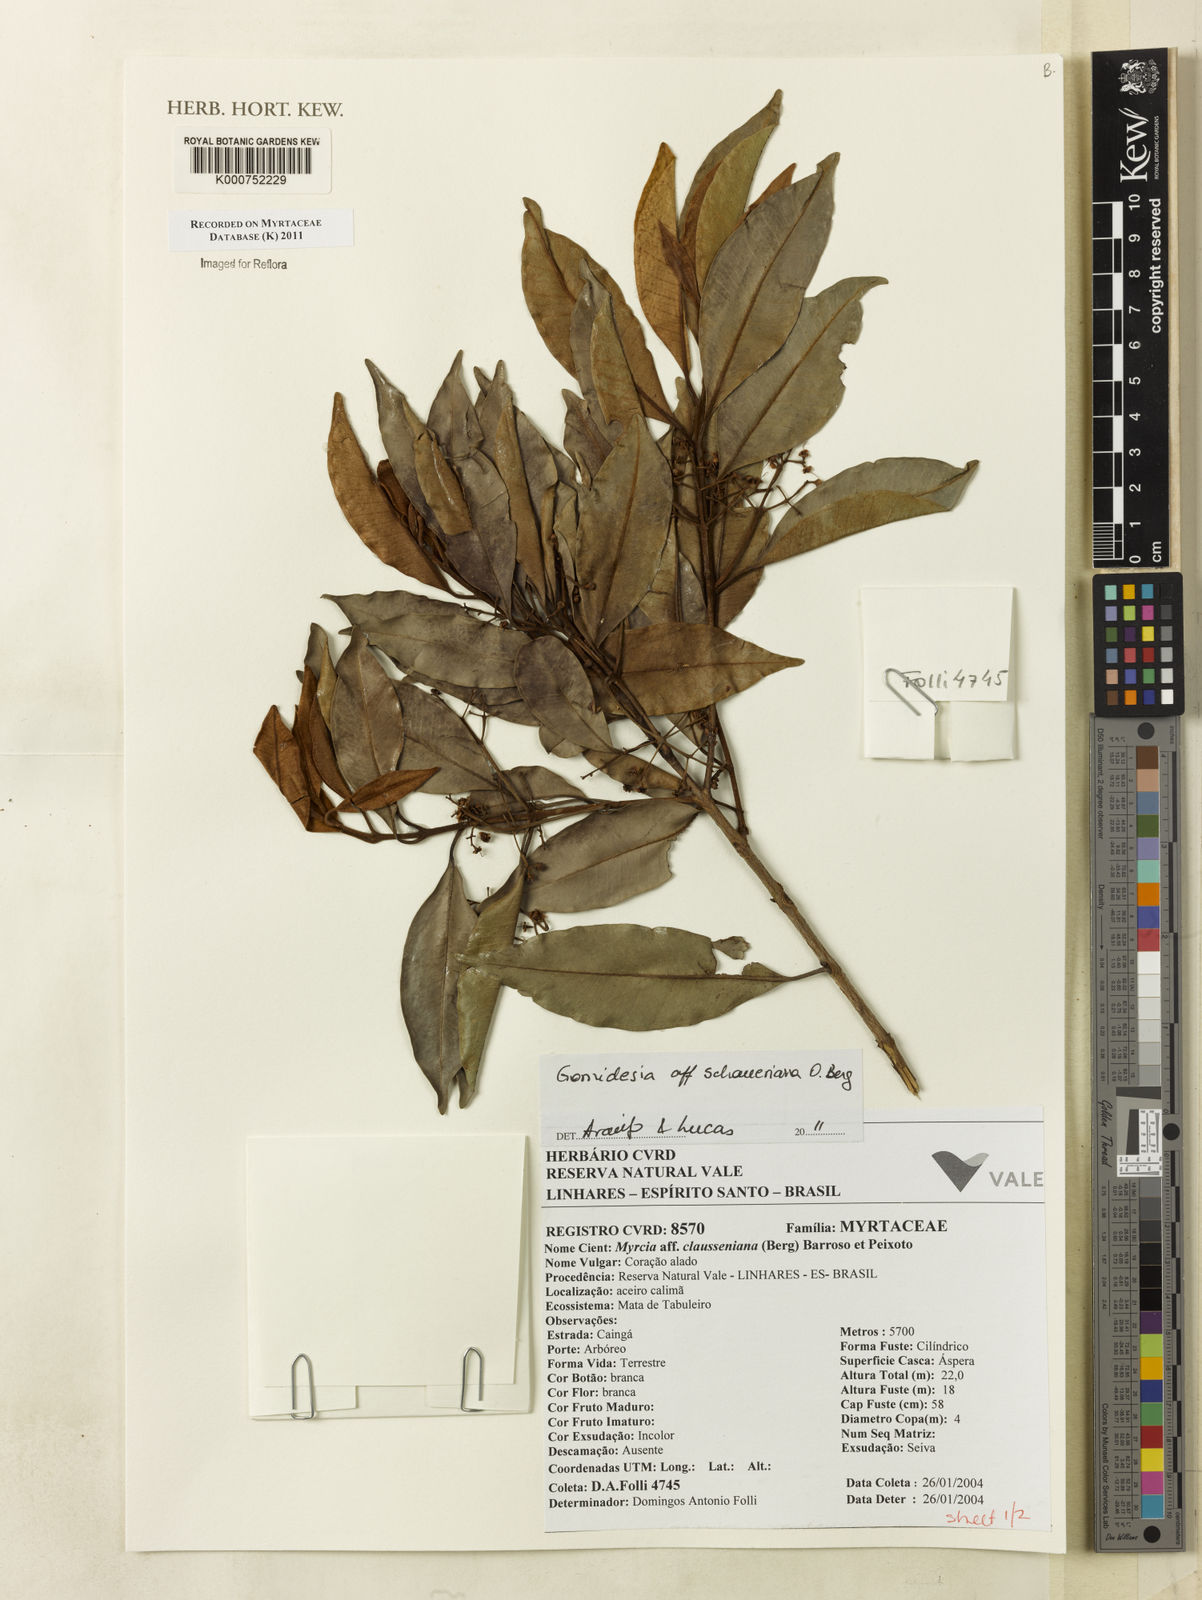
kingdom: Plantae
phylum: Tracheophyta
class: Magnoliopsida
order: Myrtales
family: Myrtaceae
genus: Myrcia
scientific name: Myrcia freyreissiana
